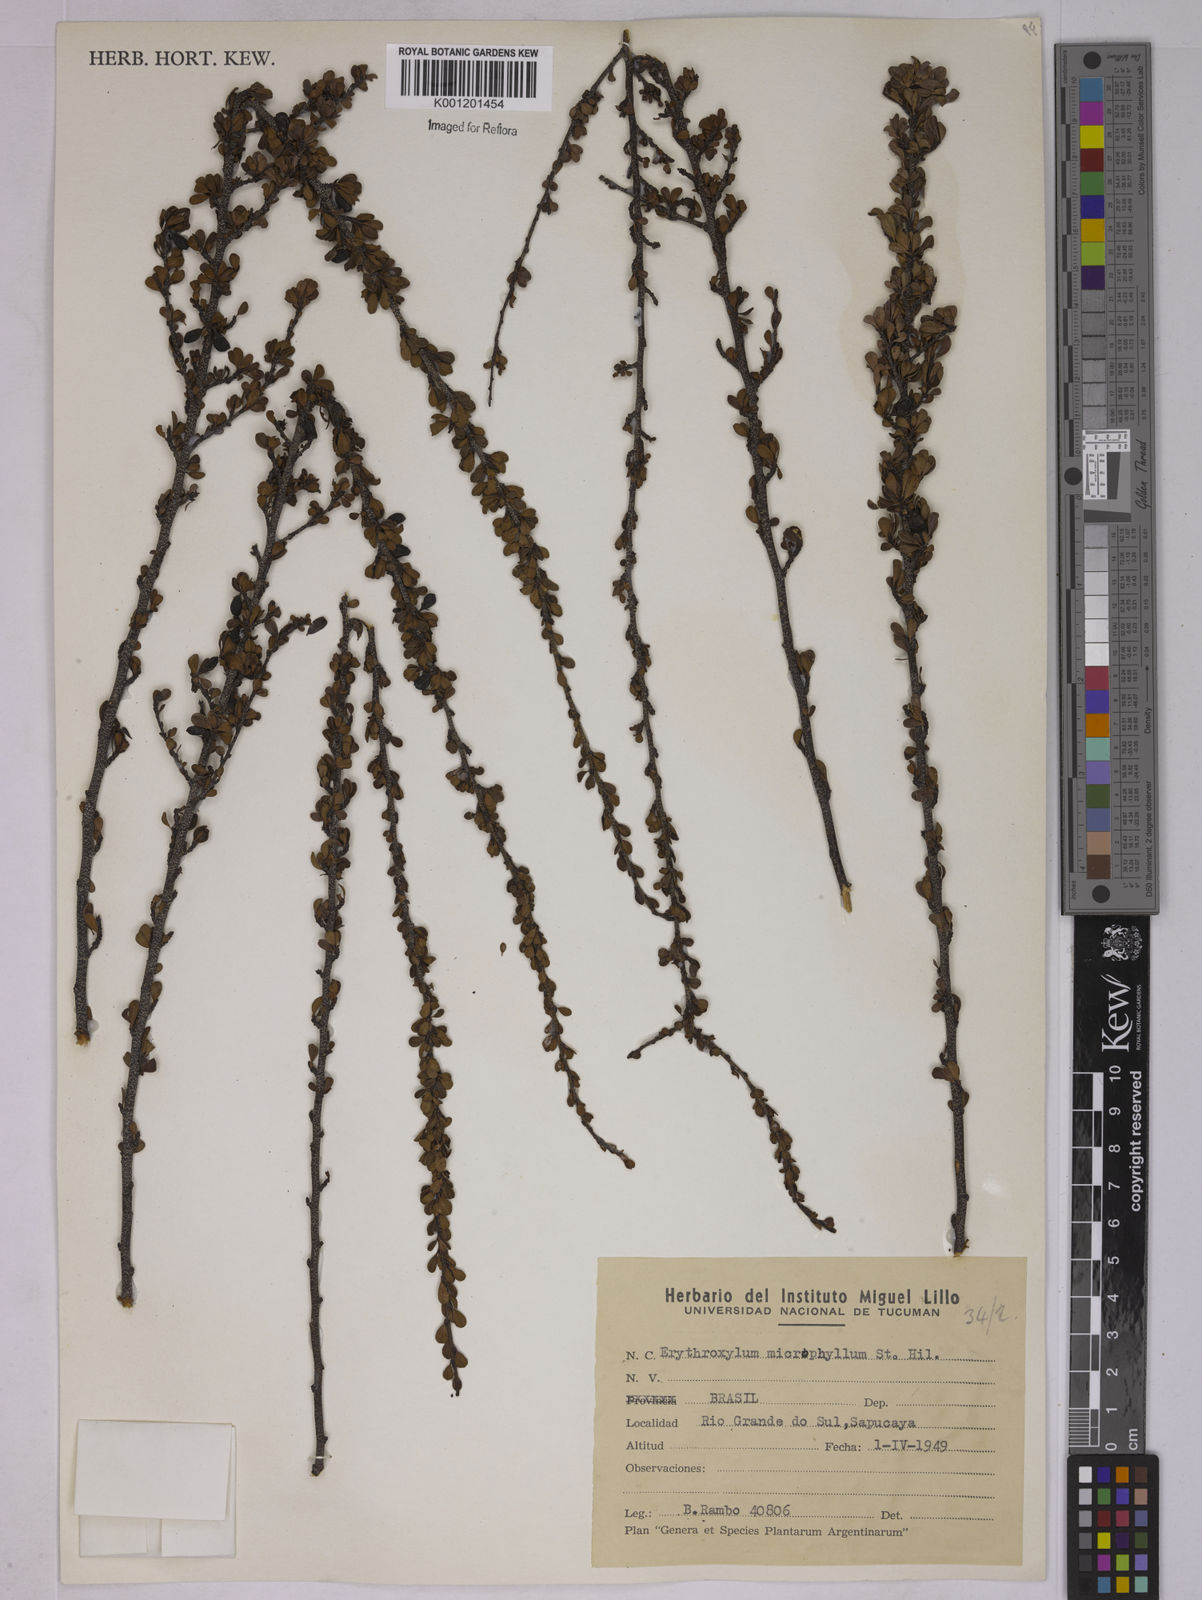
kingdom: Plantae
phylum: Tracheophyta
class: Magnoliopsida
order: Malpighiales
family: Erythroxylaceae
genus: Erythroxylum
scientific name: Erythroxylum microphyllum
